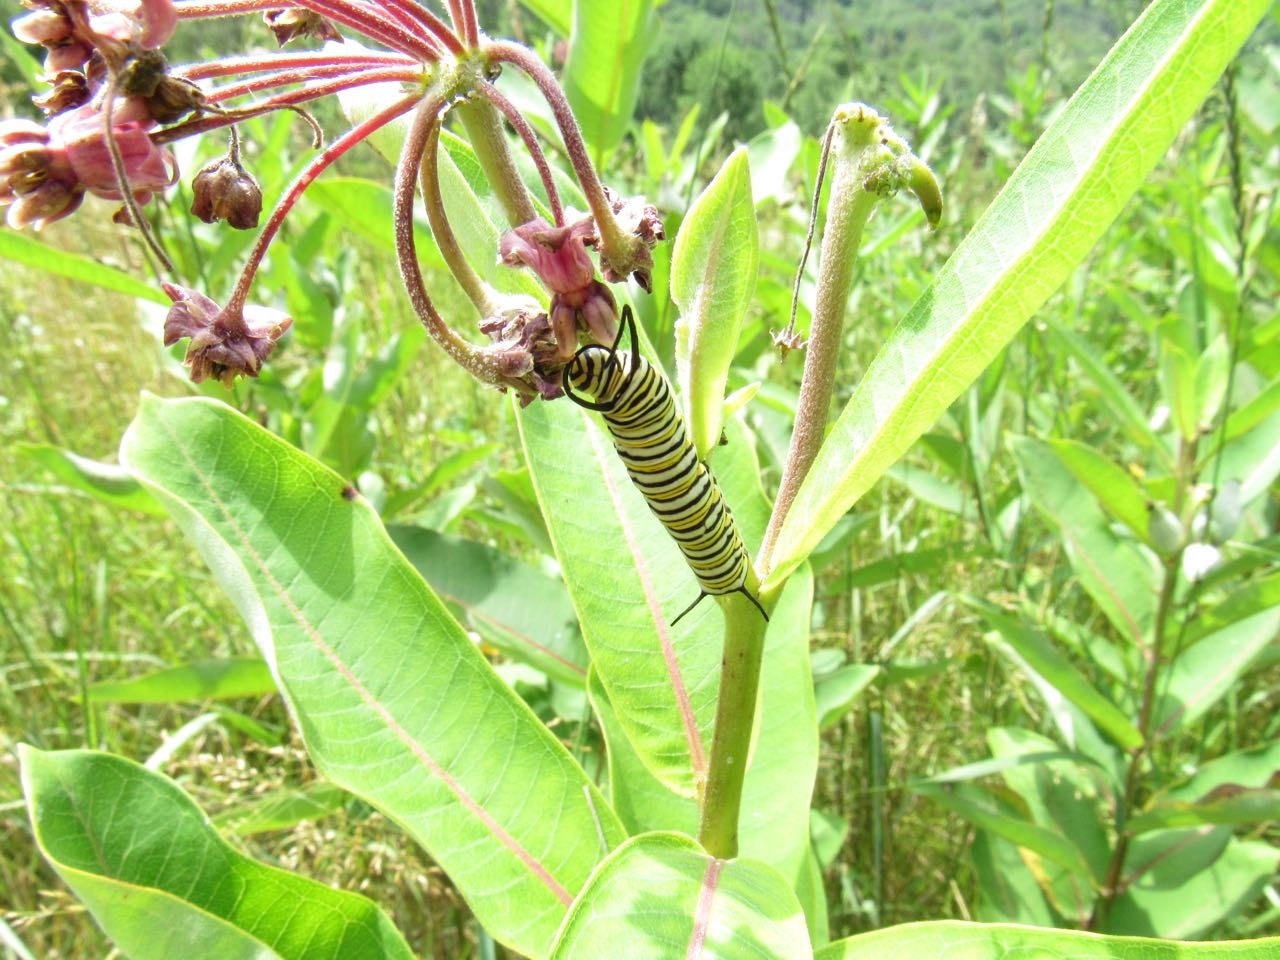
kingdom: Animalia
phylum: Arthropoda
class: Insecta
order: Lepidoptera
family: Nymphalidae
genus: Danaus
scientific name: Danaus plexippus
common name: Monarch
